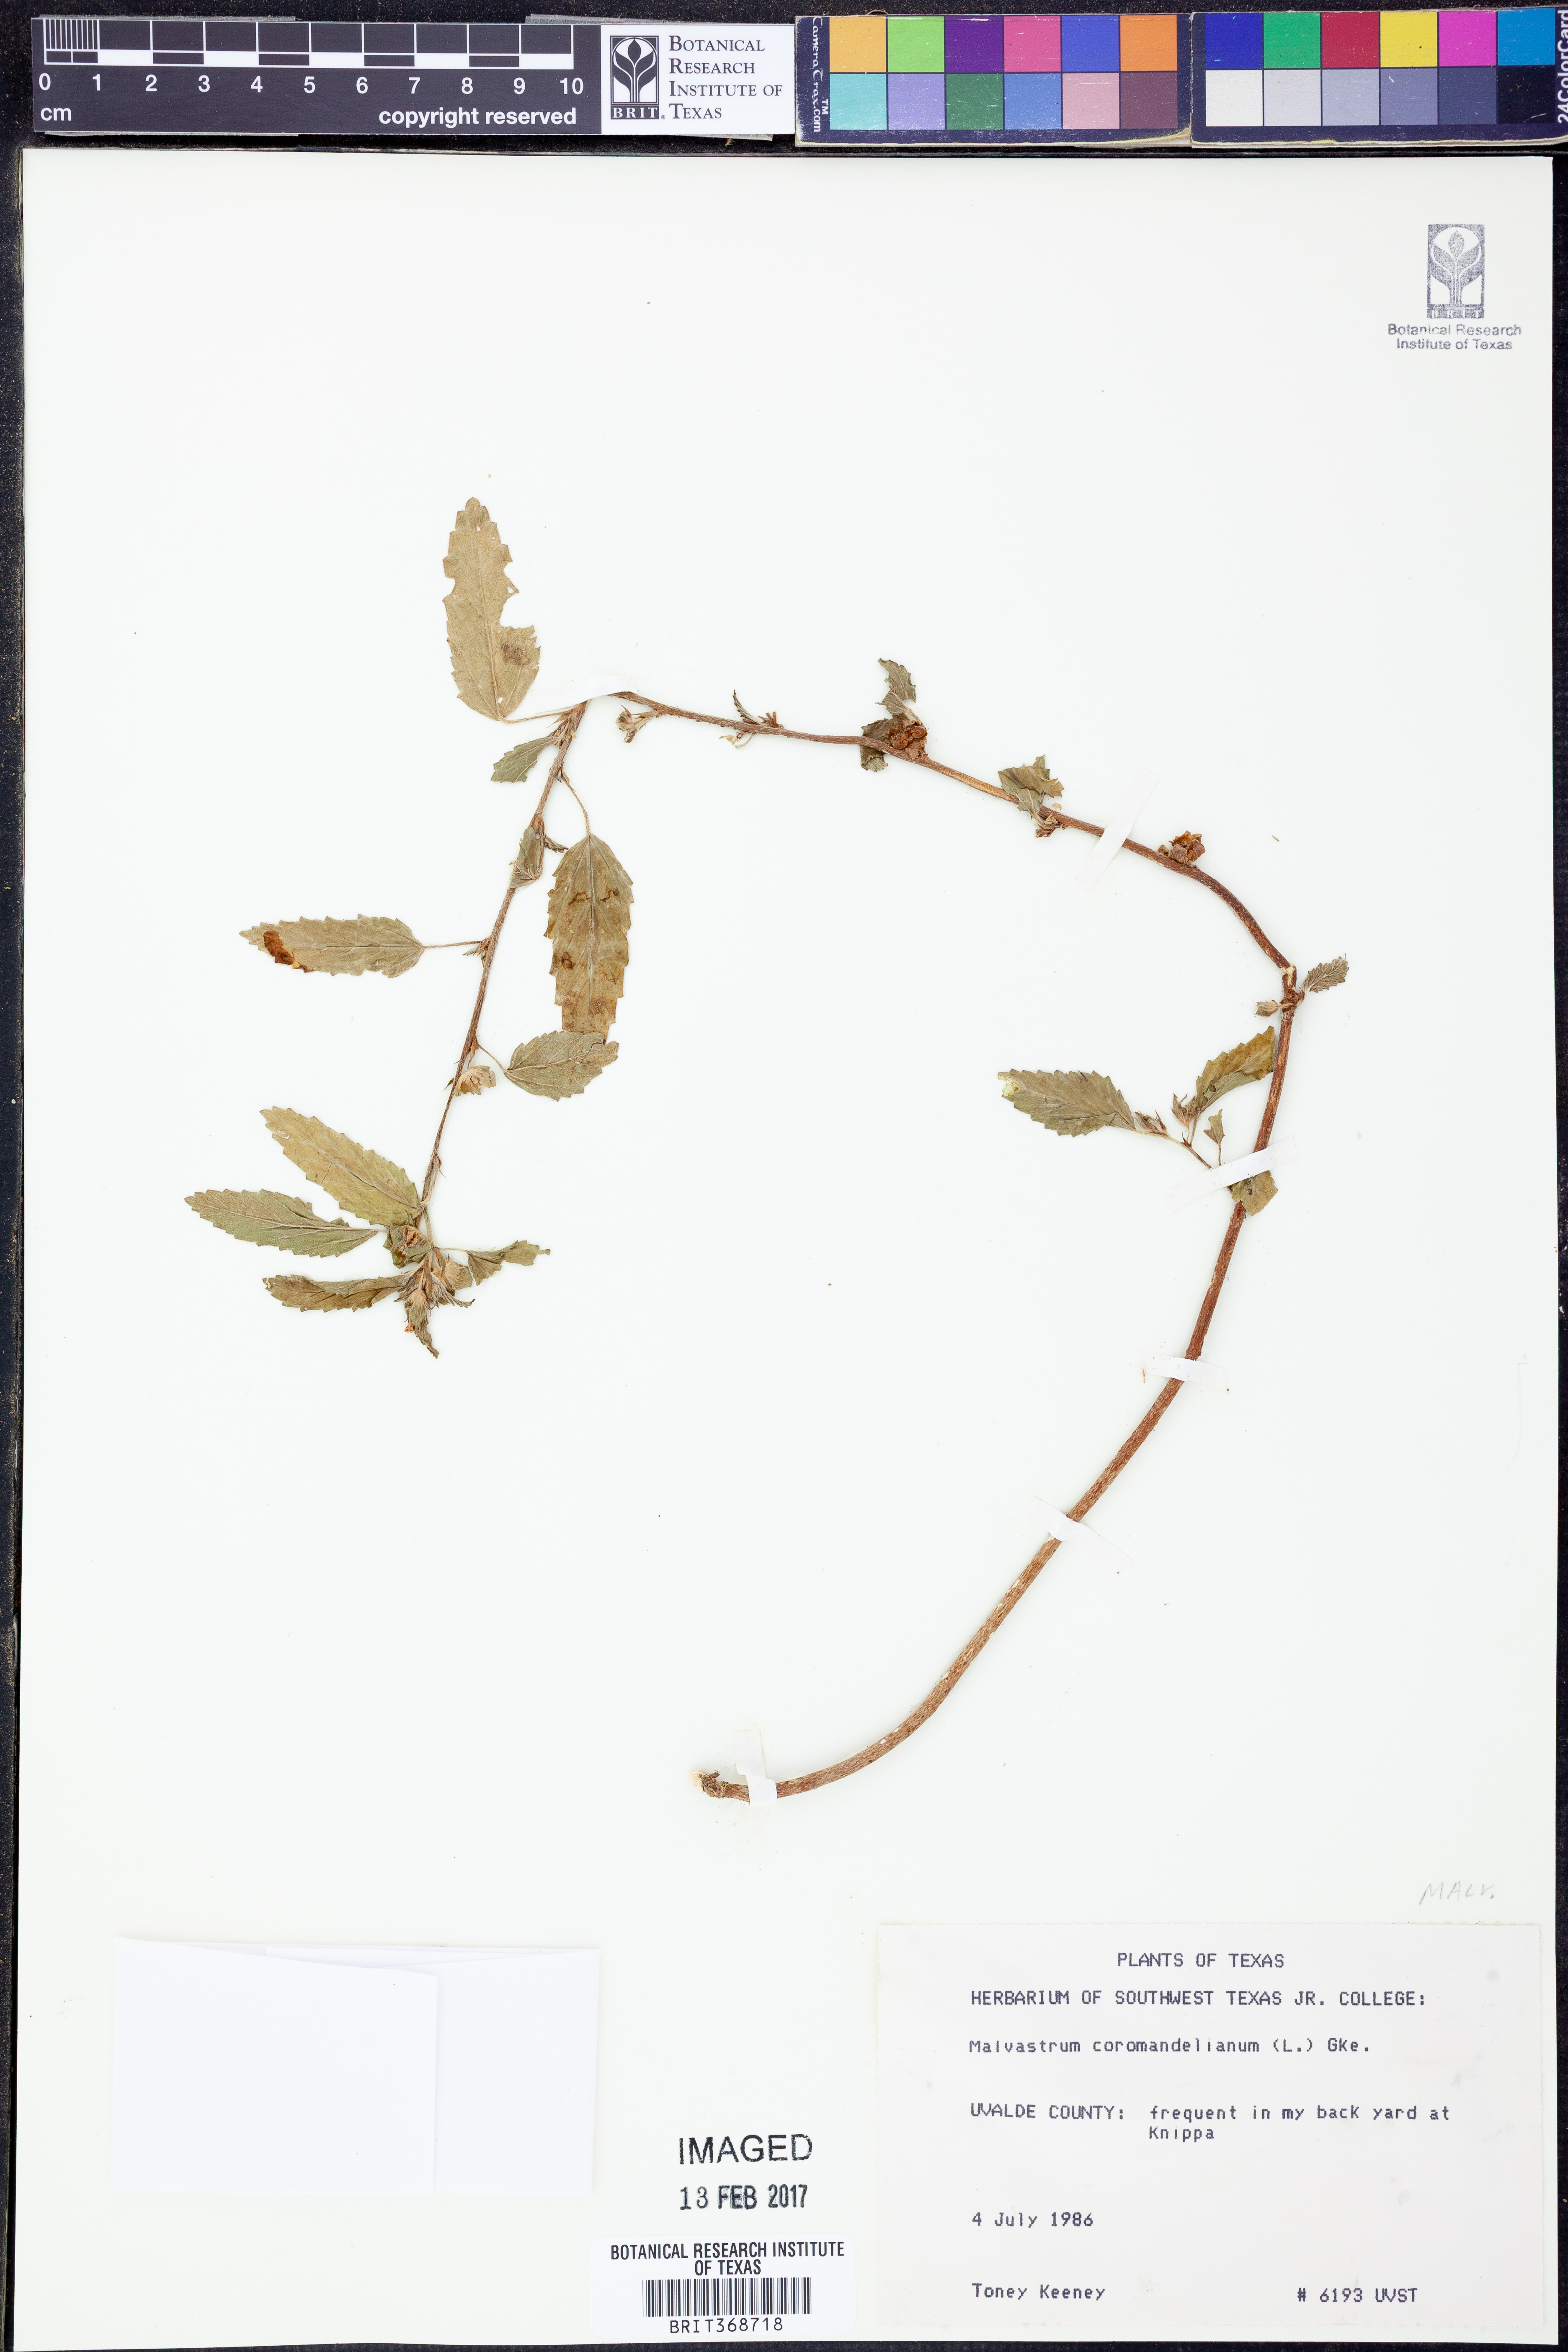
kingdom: Plantae
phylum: Tracheophyta
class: Magnoliopsida
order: Malvales
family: Malvaceae
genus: Malvastrum
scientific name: Malvastrum coromandelianum
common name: Threelobe false mallow
